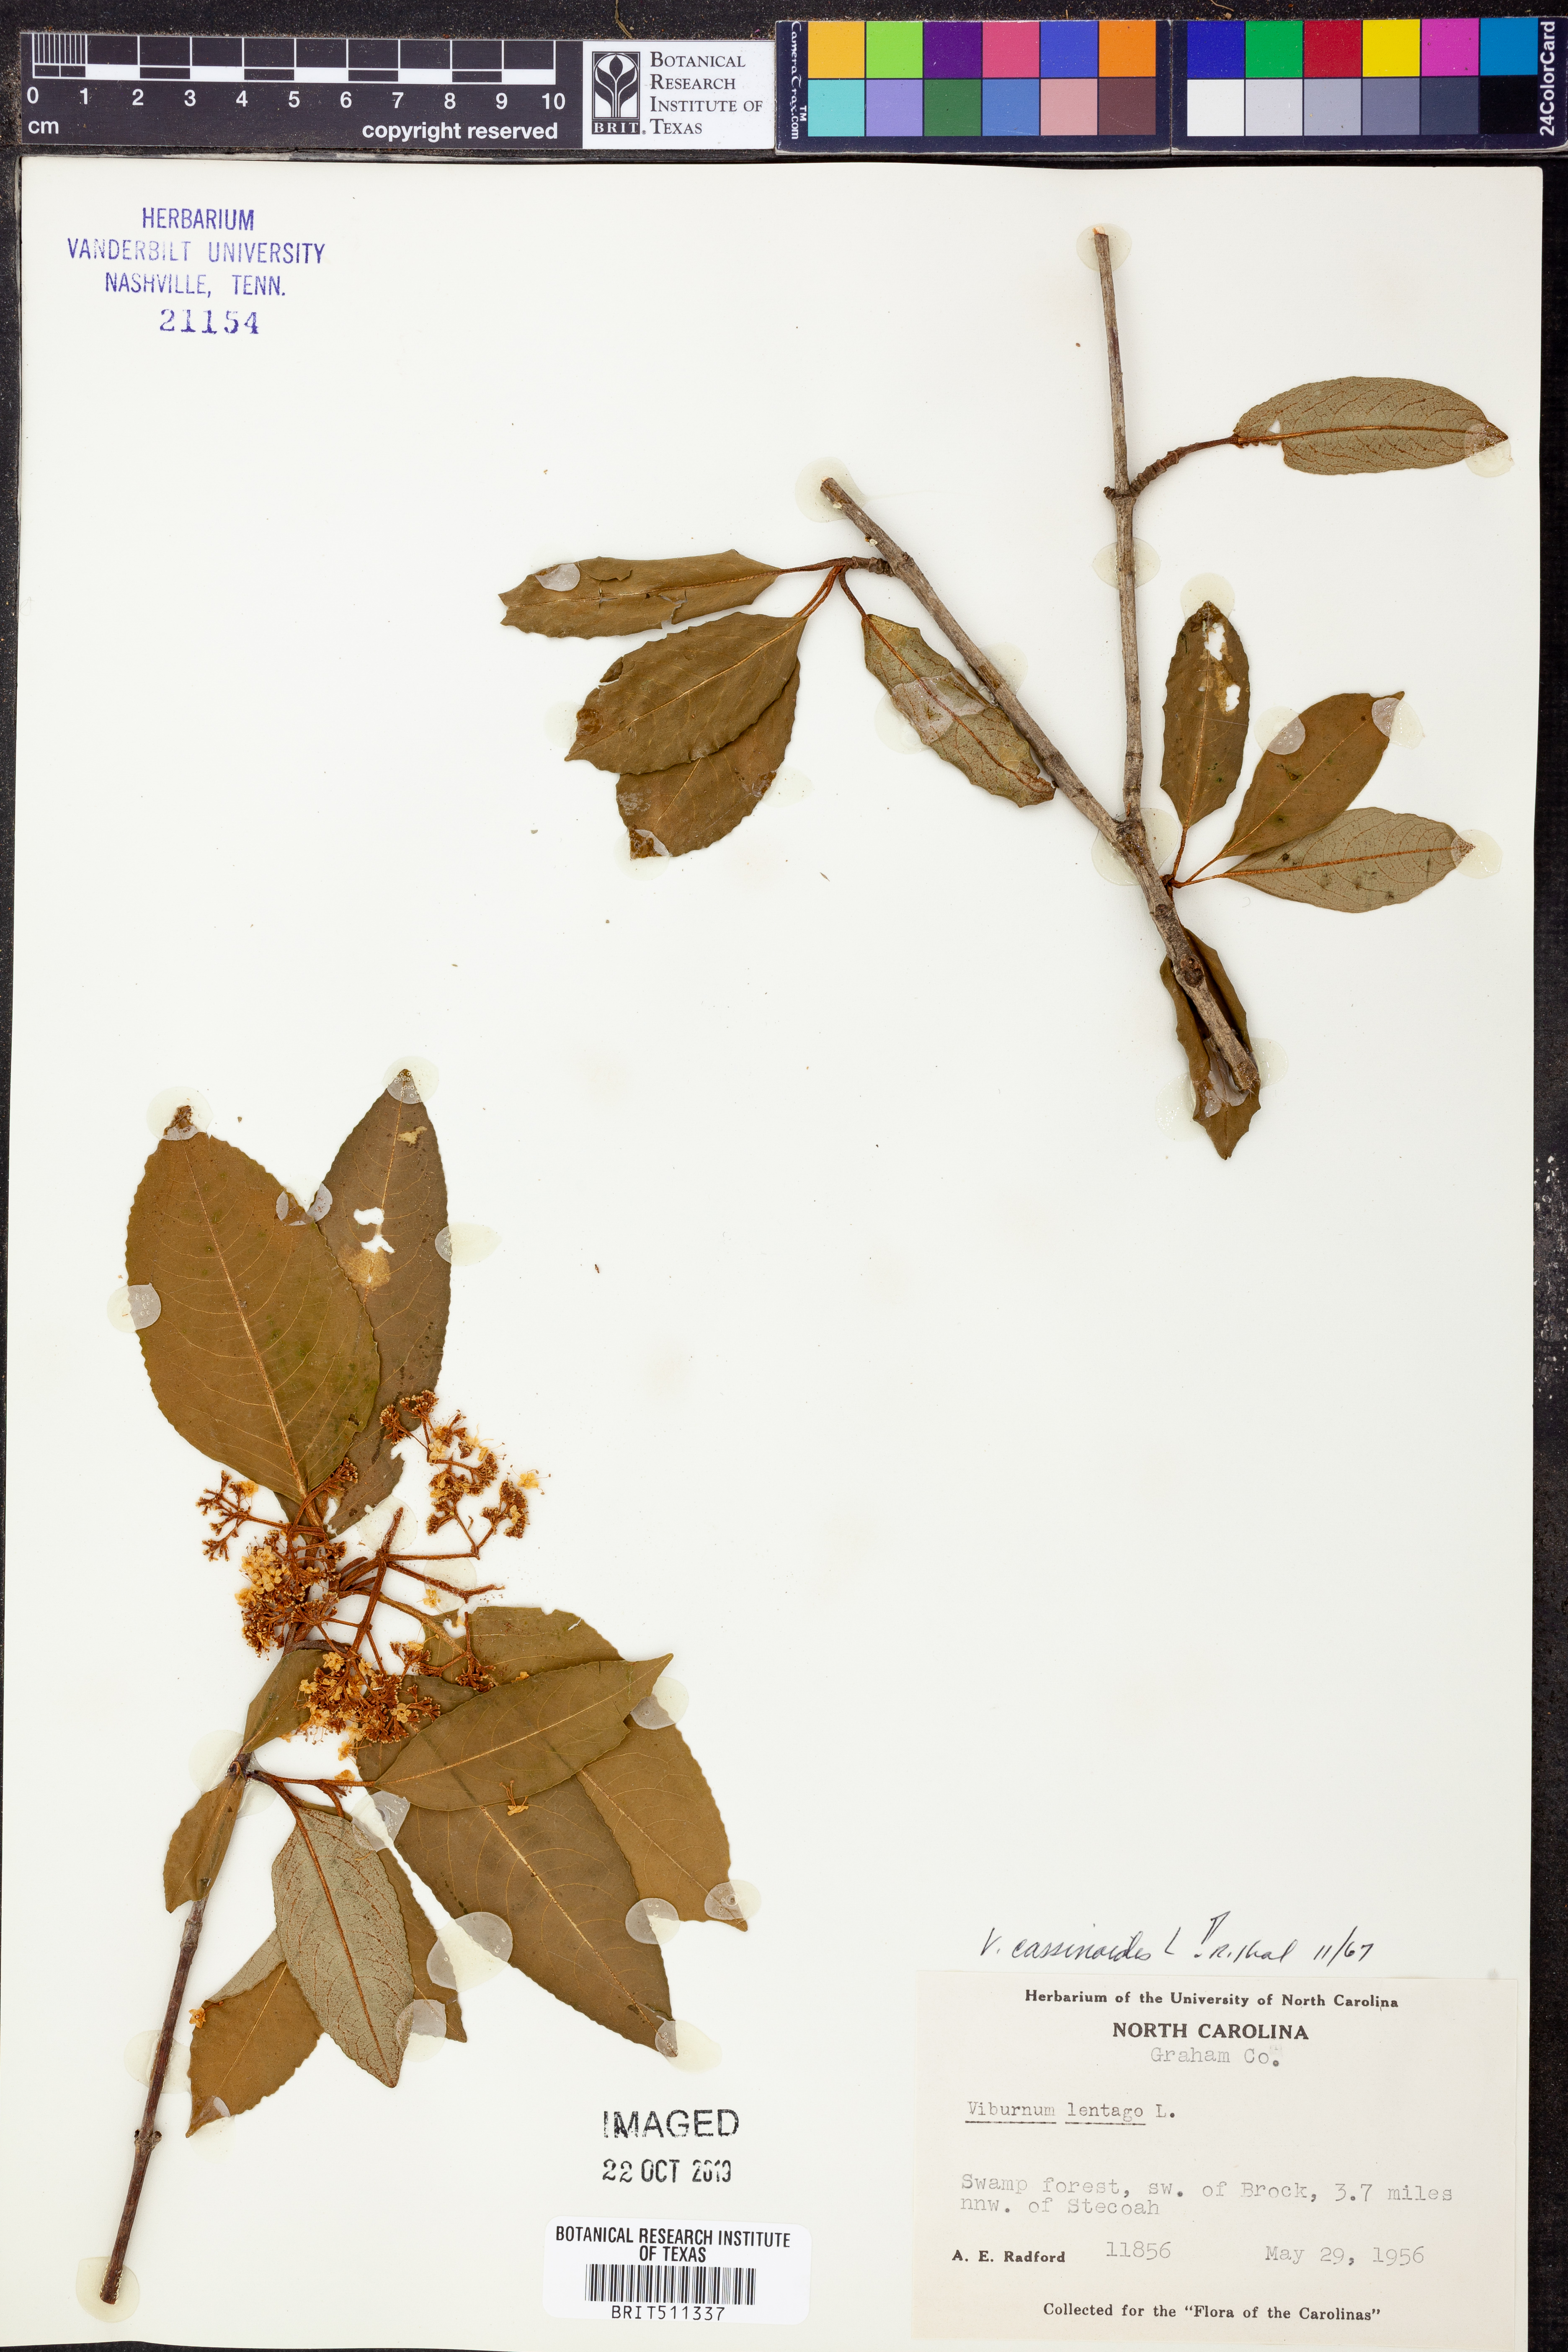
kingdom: Plantae
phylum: Tracheophyta
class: Magnoliopsida
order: Dipsacales
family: Viburnaceae
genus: Viburnum
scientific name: Viburnum cassinoides
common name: Swamp haw
